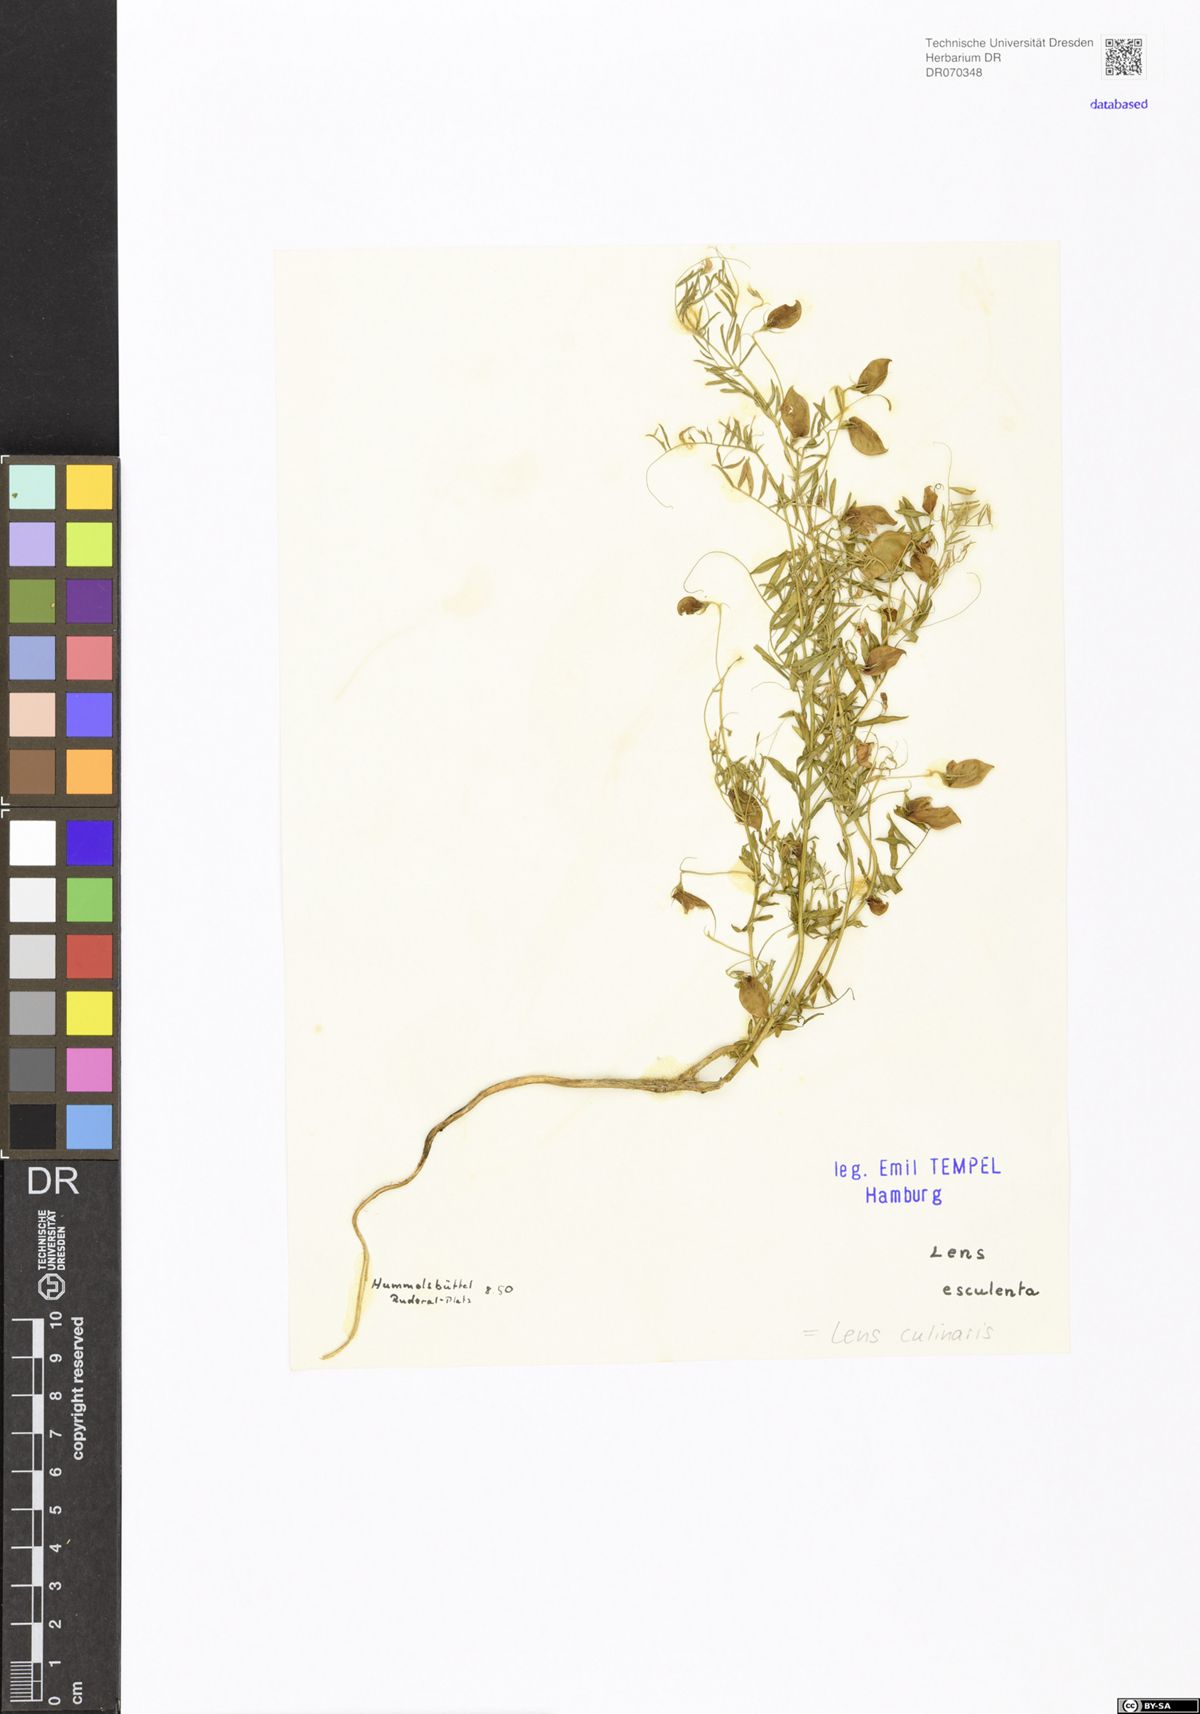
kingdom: Plantae
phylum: Tracheophyta
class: Magnoliopsida
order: Fabales
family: Fabaceae
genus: Vicia
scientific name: Vicia lens
